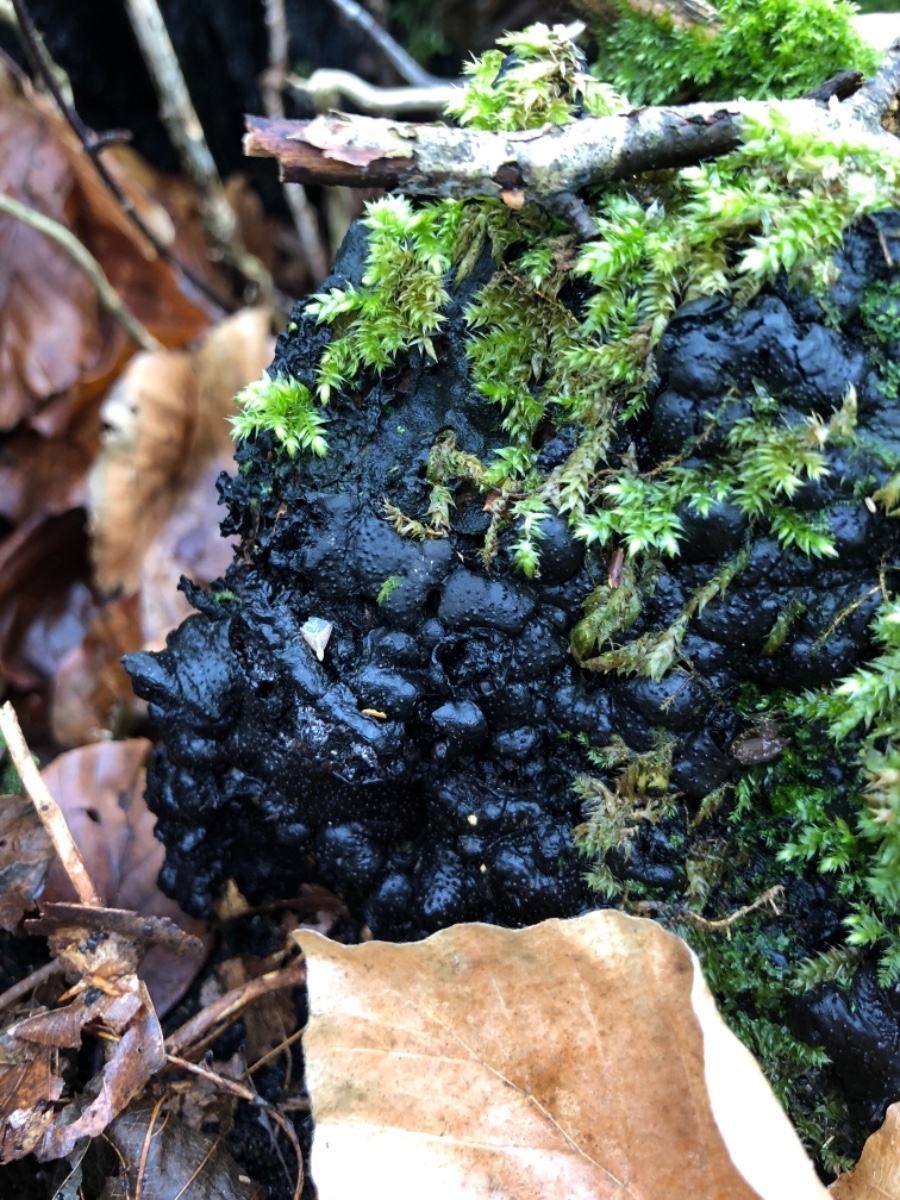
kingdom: Fungi
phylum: Ascomycota
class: Sordariomycetes
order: Xylariales
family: Xylariaceae
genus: Kretzschmaria
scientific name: Kretzschmaria deusta
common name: stor kulsvamp
